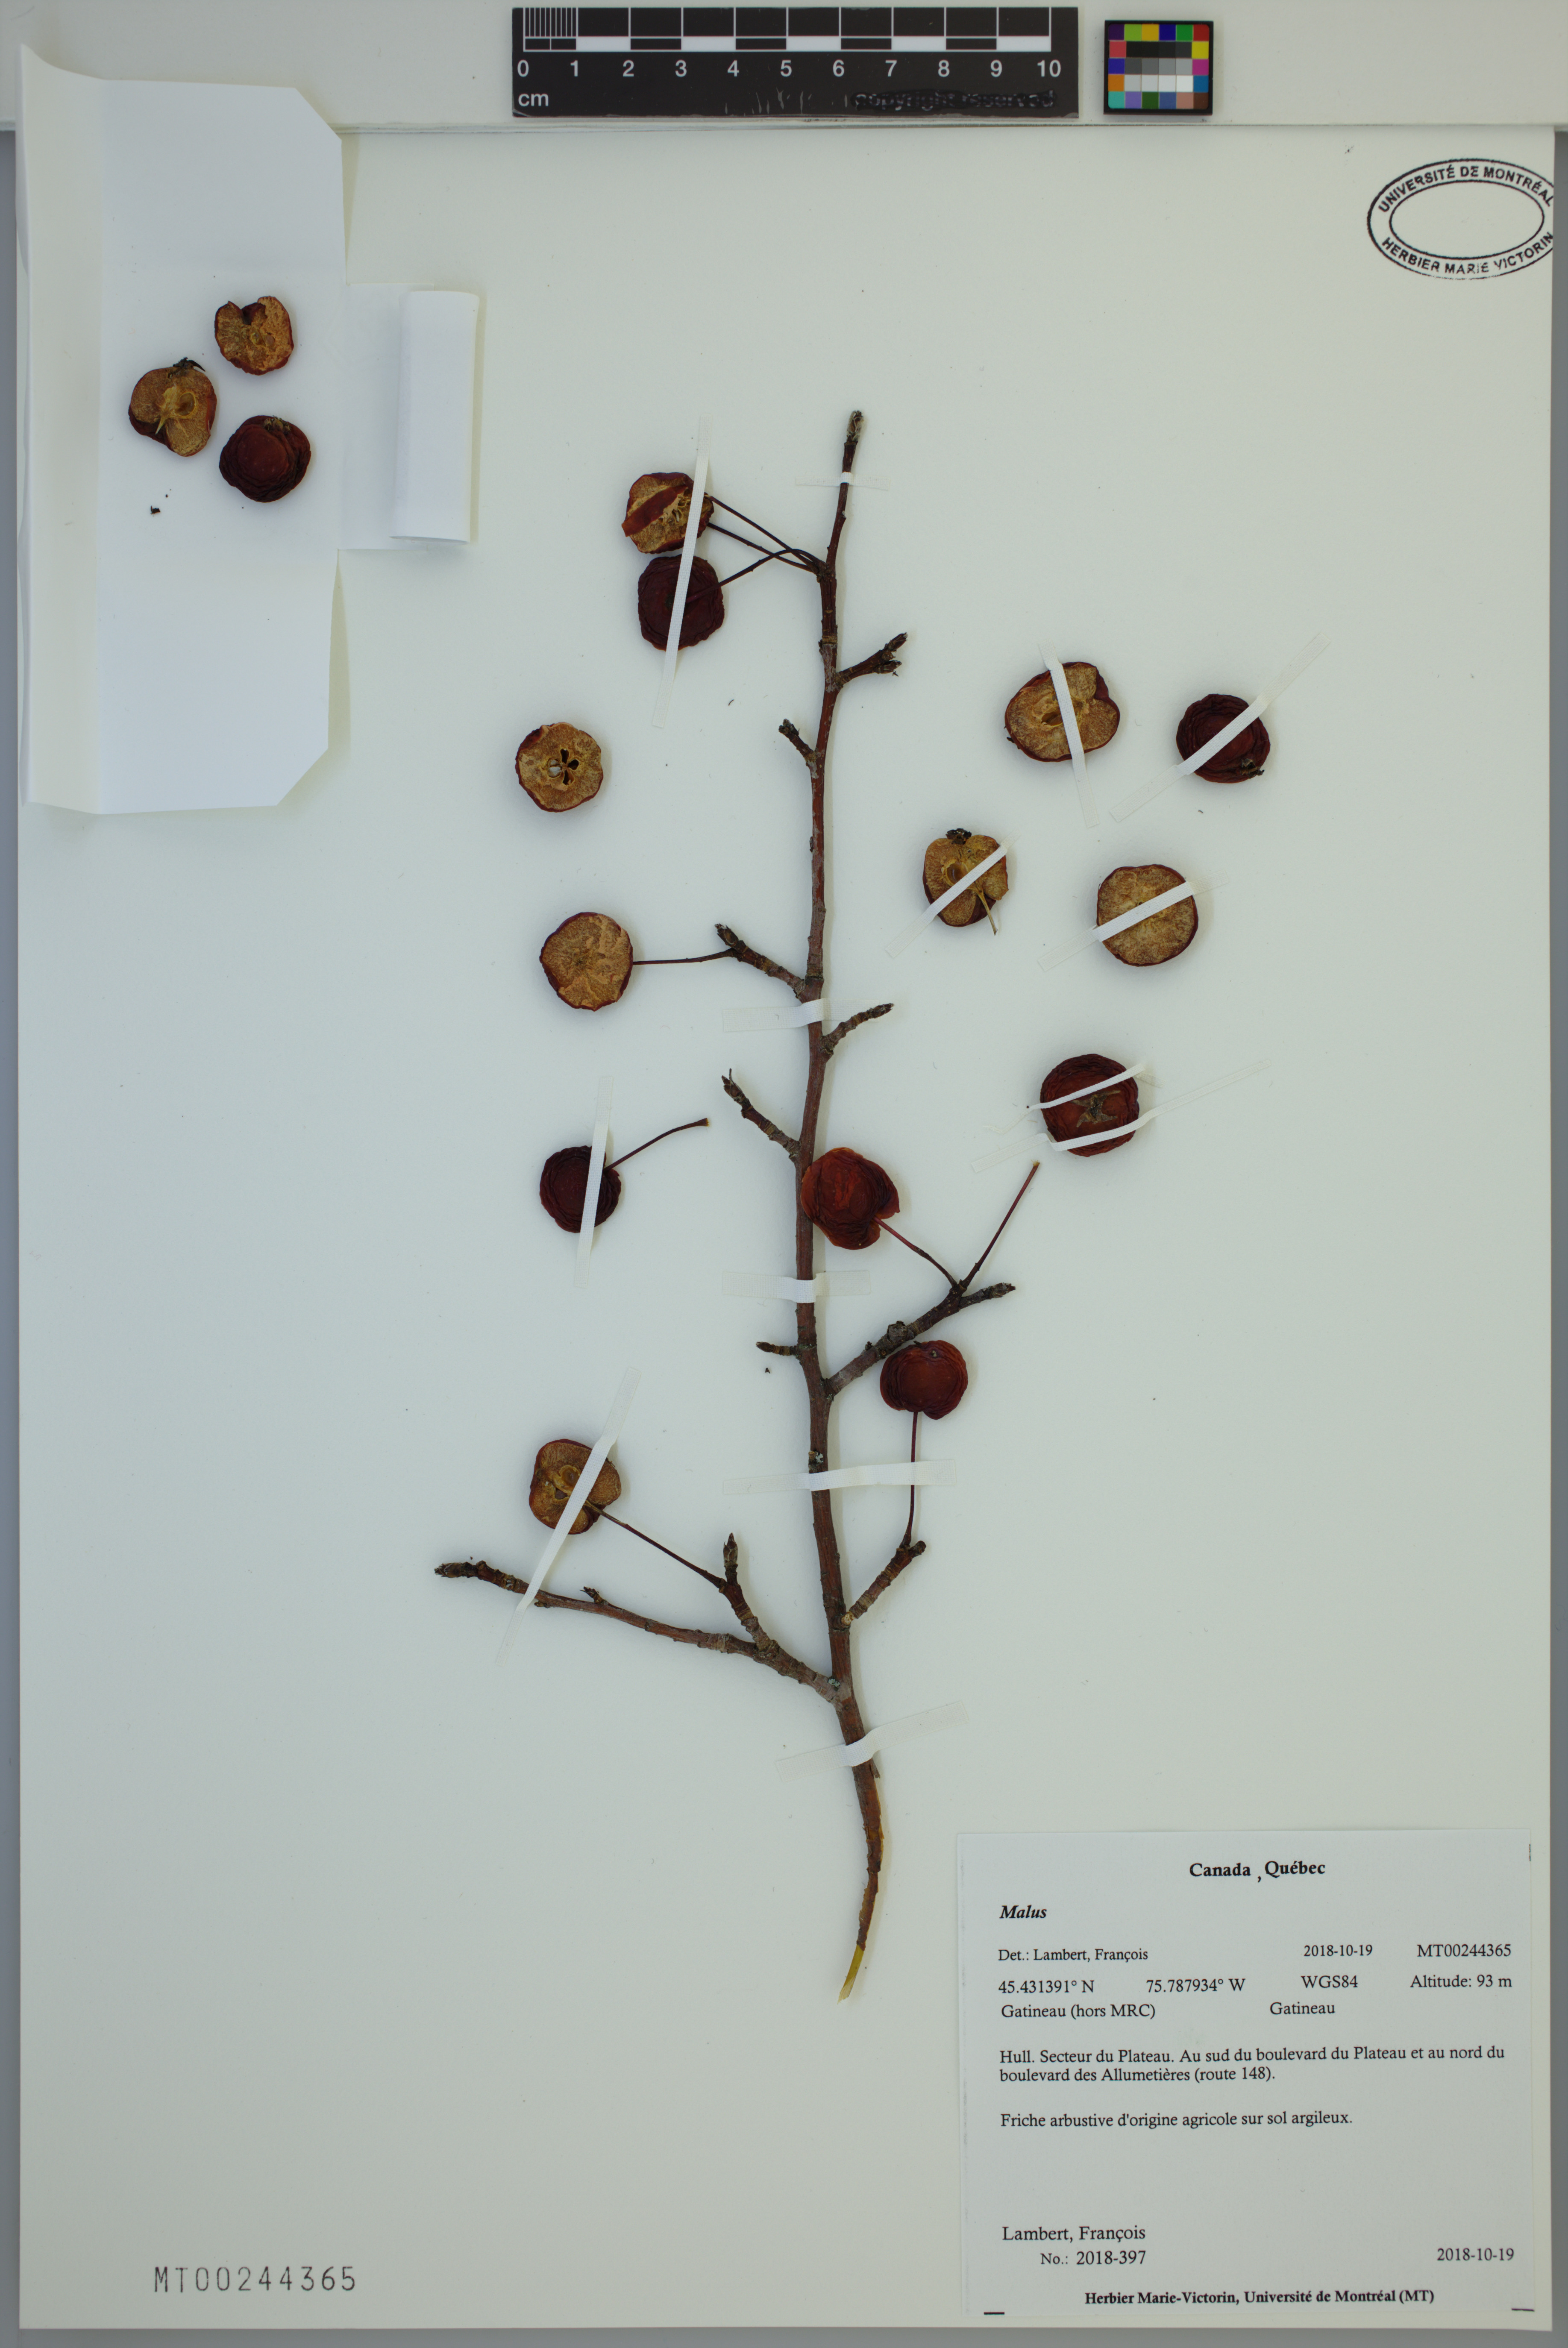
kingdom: Plantae
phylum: Tracheophyta
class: Magnoliopsida
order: Rosales
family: Rosaceae
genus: Malus
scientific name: Malus
